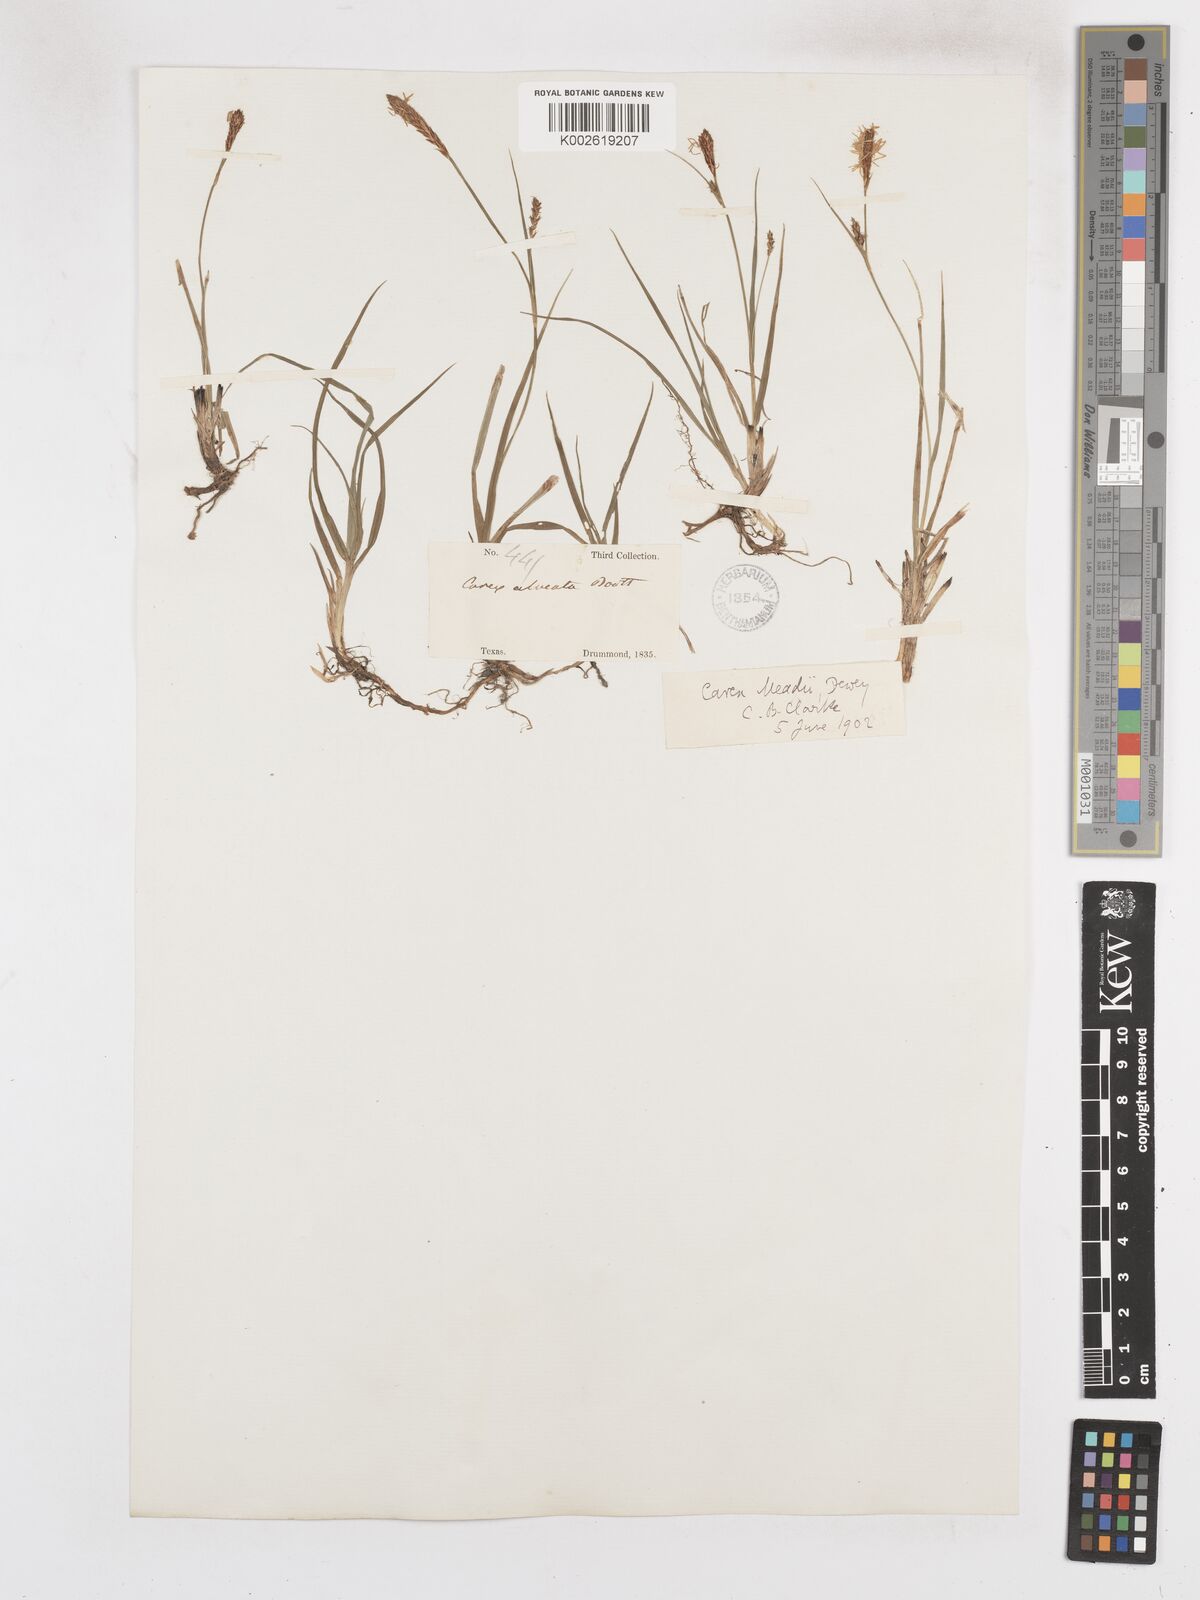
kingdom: Plantae
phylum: Tracheophyta
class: Liliopsida
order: Poales
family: Cyperaceae
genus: Carex
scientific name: Carex microdonta
